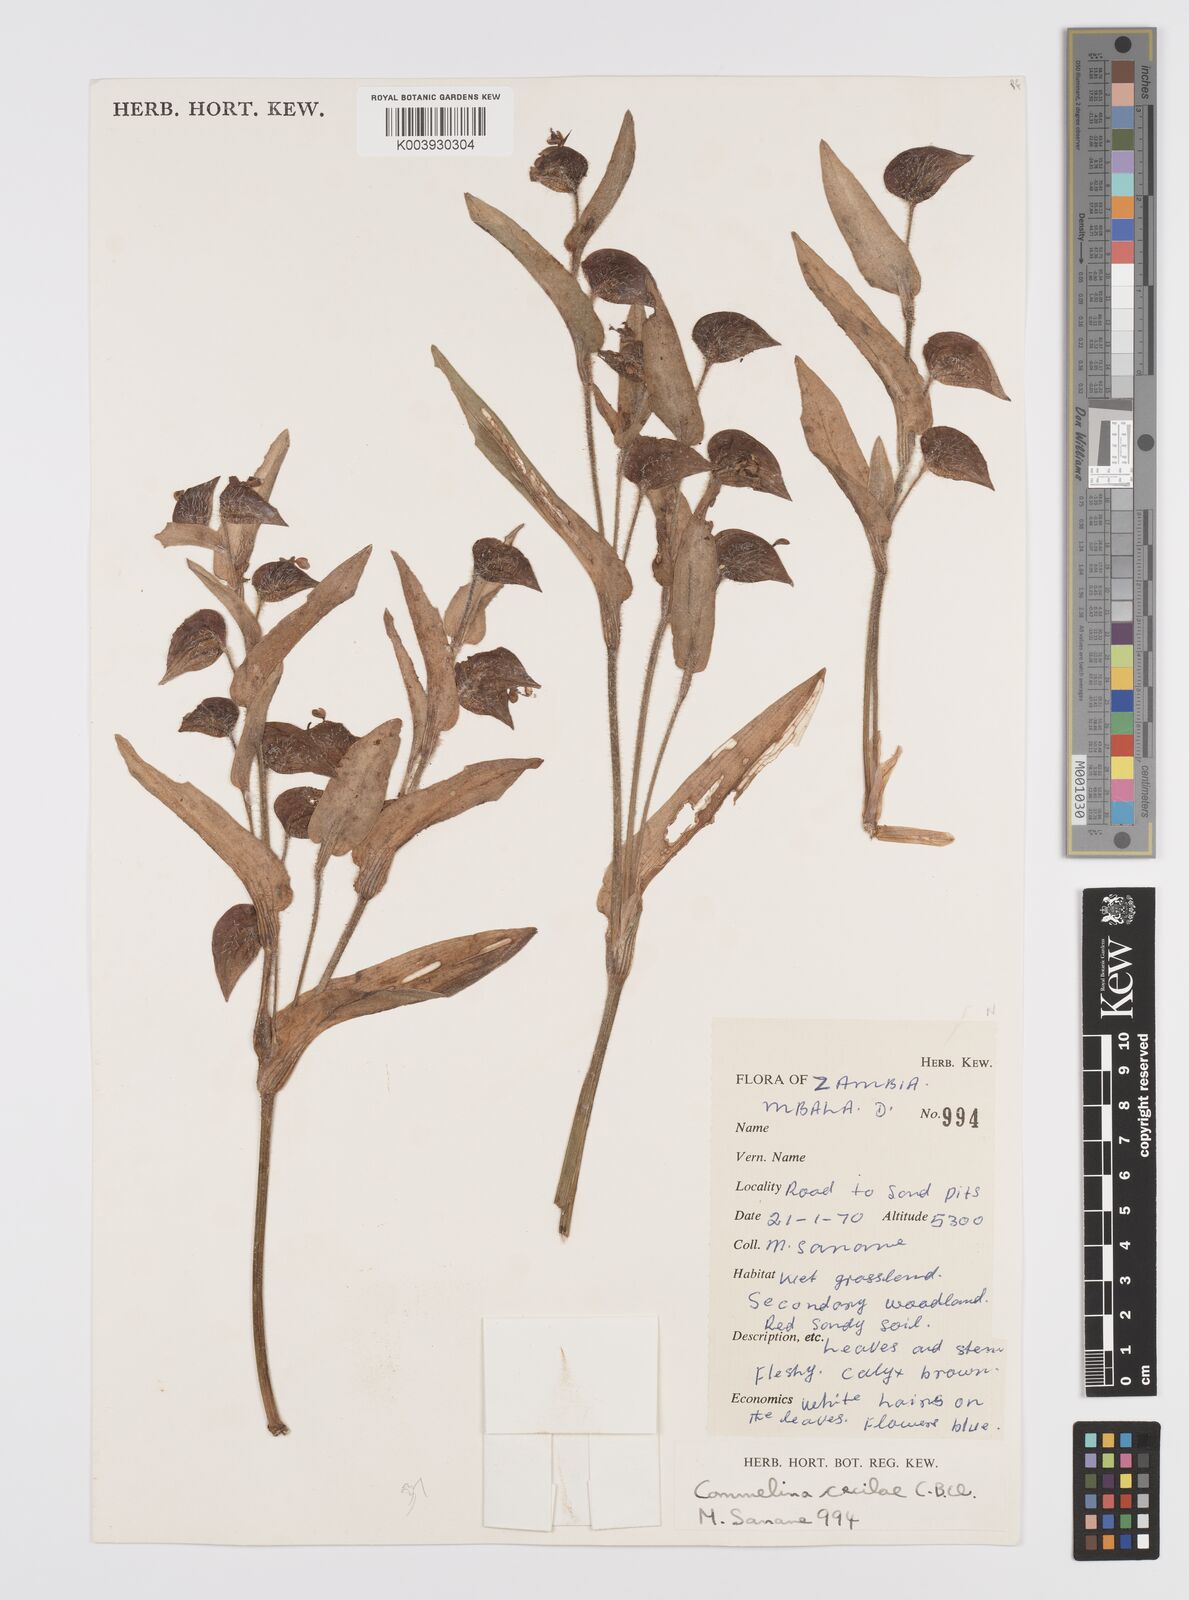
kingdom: Plantae
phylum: Tracheophyta
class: Liliopsida
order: Commelinales
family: Commelinaceae
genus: Commelina
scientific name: Commelina cecilae
